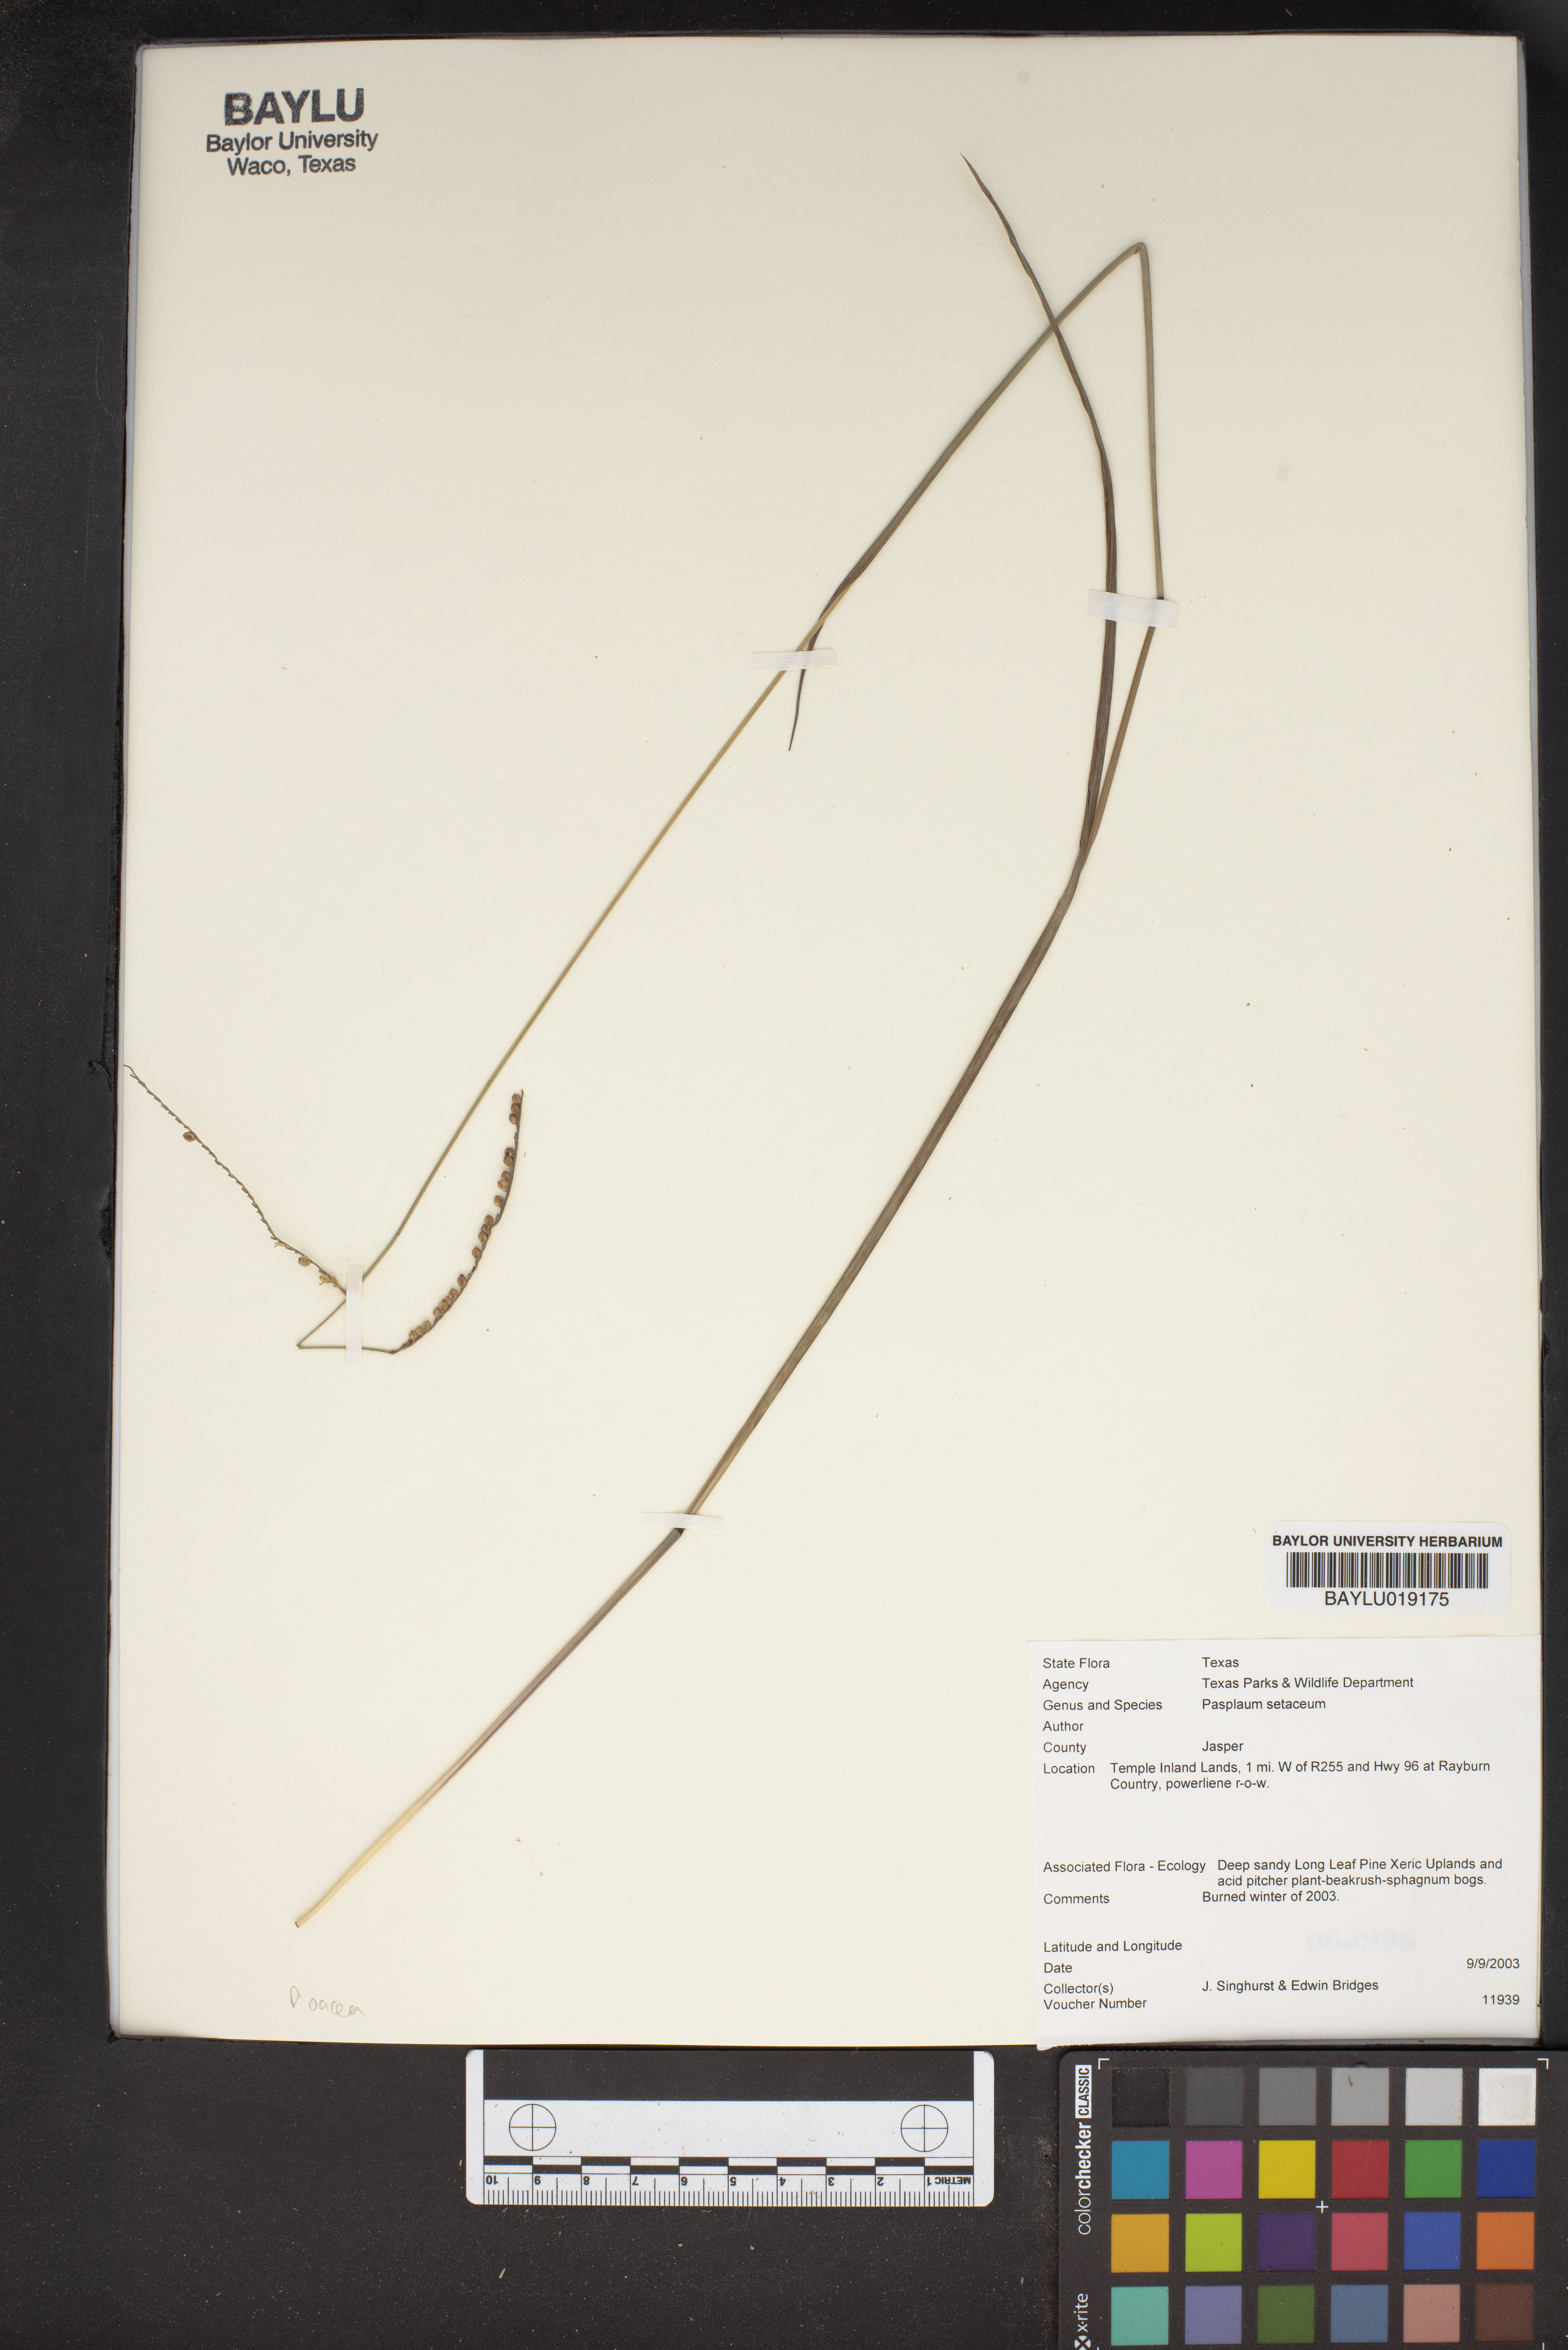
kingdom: Plantae
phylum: Tracheophyta
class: Liliopsida
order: Poales
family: Poaceae
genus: Paspalum
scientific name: Paspalum setaceum
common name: Slender paspalum
